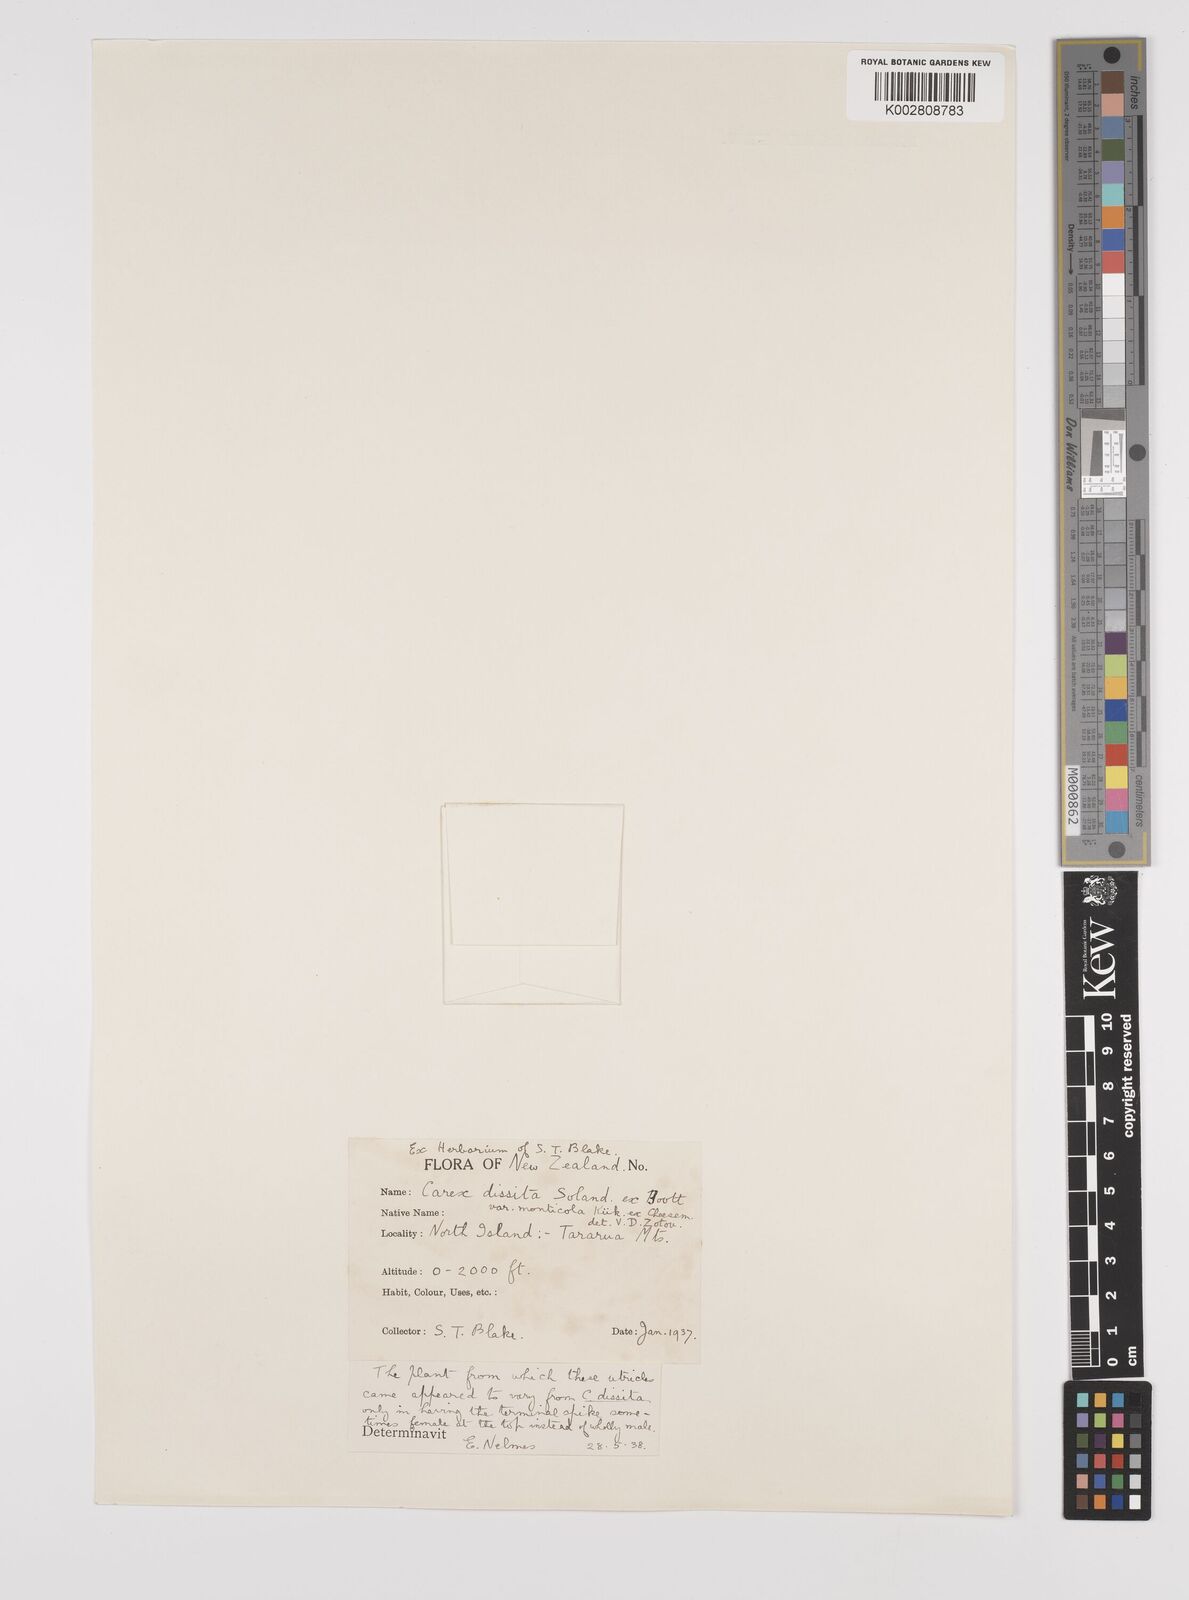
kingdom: Plantae
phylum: Tracheophyta
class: Liliopsida
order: Poales
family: Cyperaceae
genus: Carex
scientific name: Carex dissita
